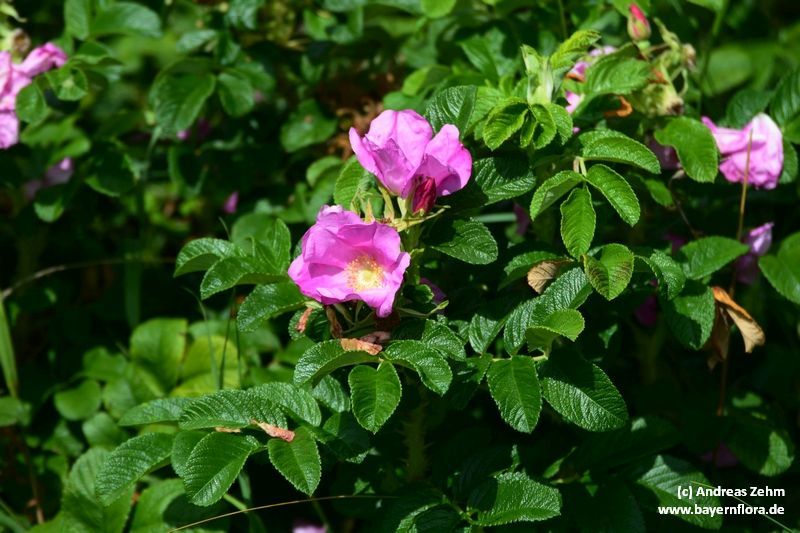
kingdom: Plantae
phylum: Tracheophyta
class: Magnoliopsida
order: Rosales
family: Rosaceae
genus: Rosa
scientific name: Rosa rugosa
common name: Japanese rose
